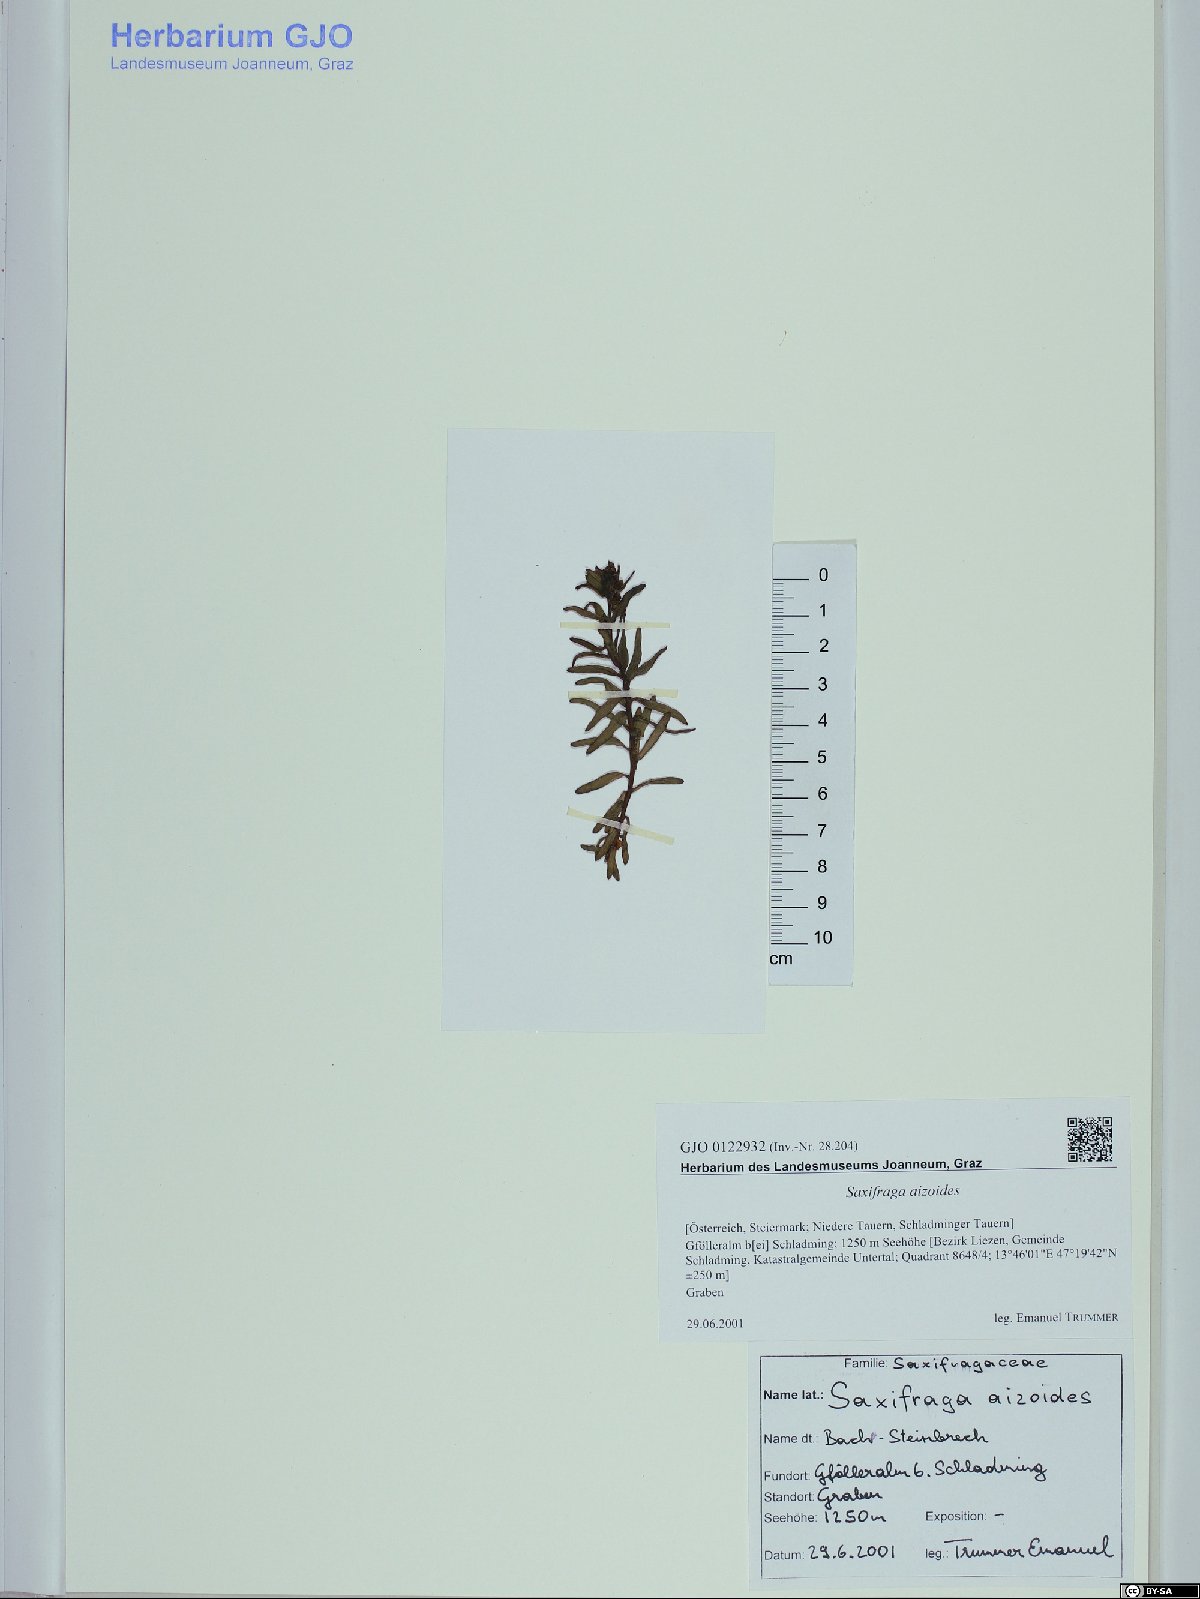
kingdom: Plantae
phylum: Tracheophyta
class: Magnoliopsida
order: Saxifragales
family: Saxifragaceae
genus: Saxifraga
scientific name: Saxifraga aizoides
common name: Yellow mountain saxifrage
